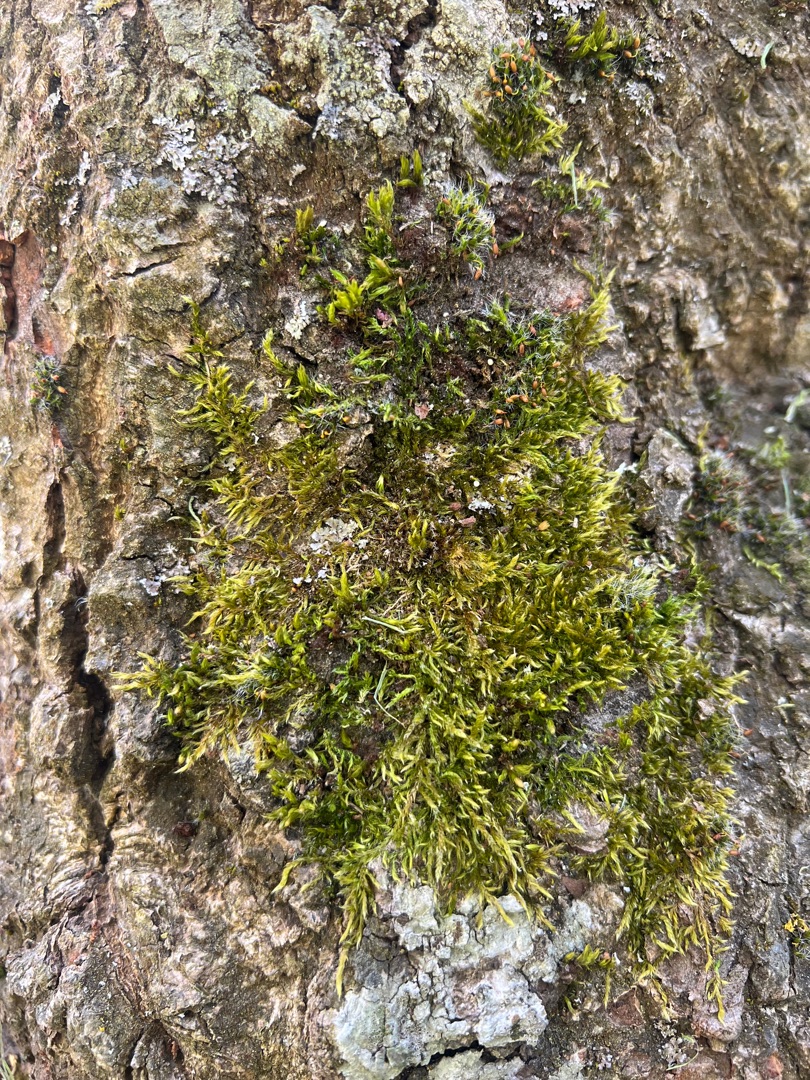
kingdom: Plantae
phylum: Bryophyta
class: Bryopsida
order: Hypnales
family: Hypnaceae
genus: Hypnum
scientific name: Hypnum cupressiforme
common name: Almindelig cypresmos
